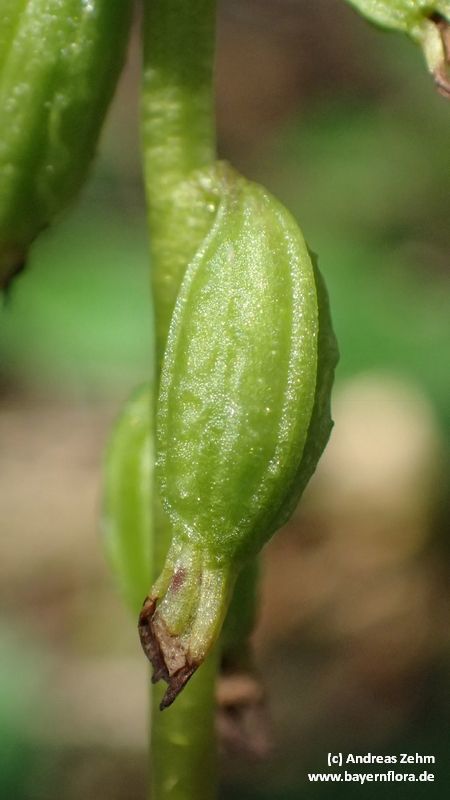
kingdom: Plantae
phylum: Tracheophyta
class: Liliopsida
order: Asparagales
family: Orchidaceae
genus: Corallorhiza
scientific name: Corallorhiza trifida
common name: Yellow coralroot
